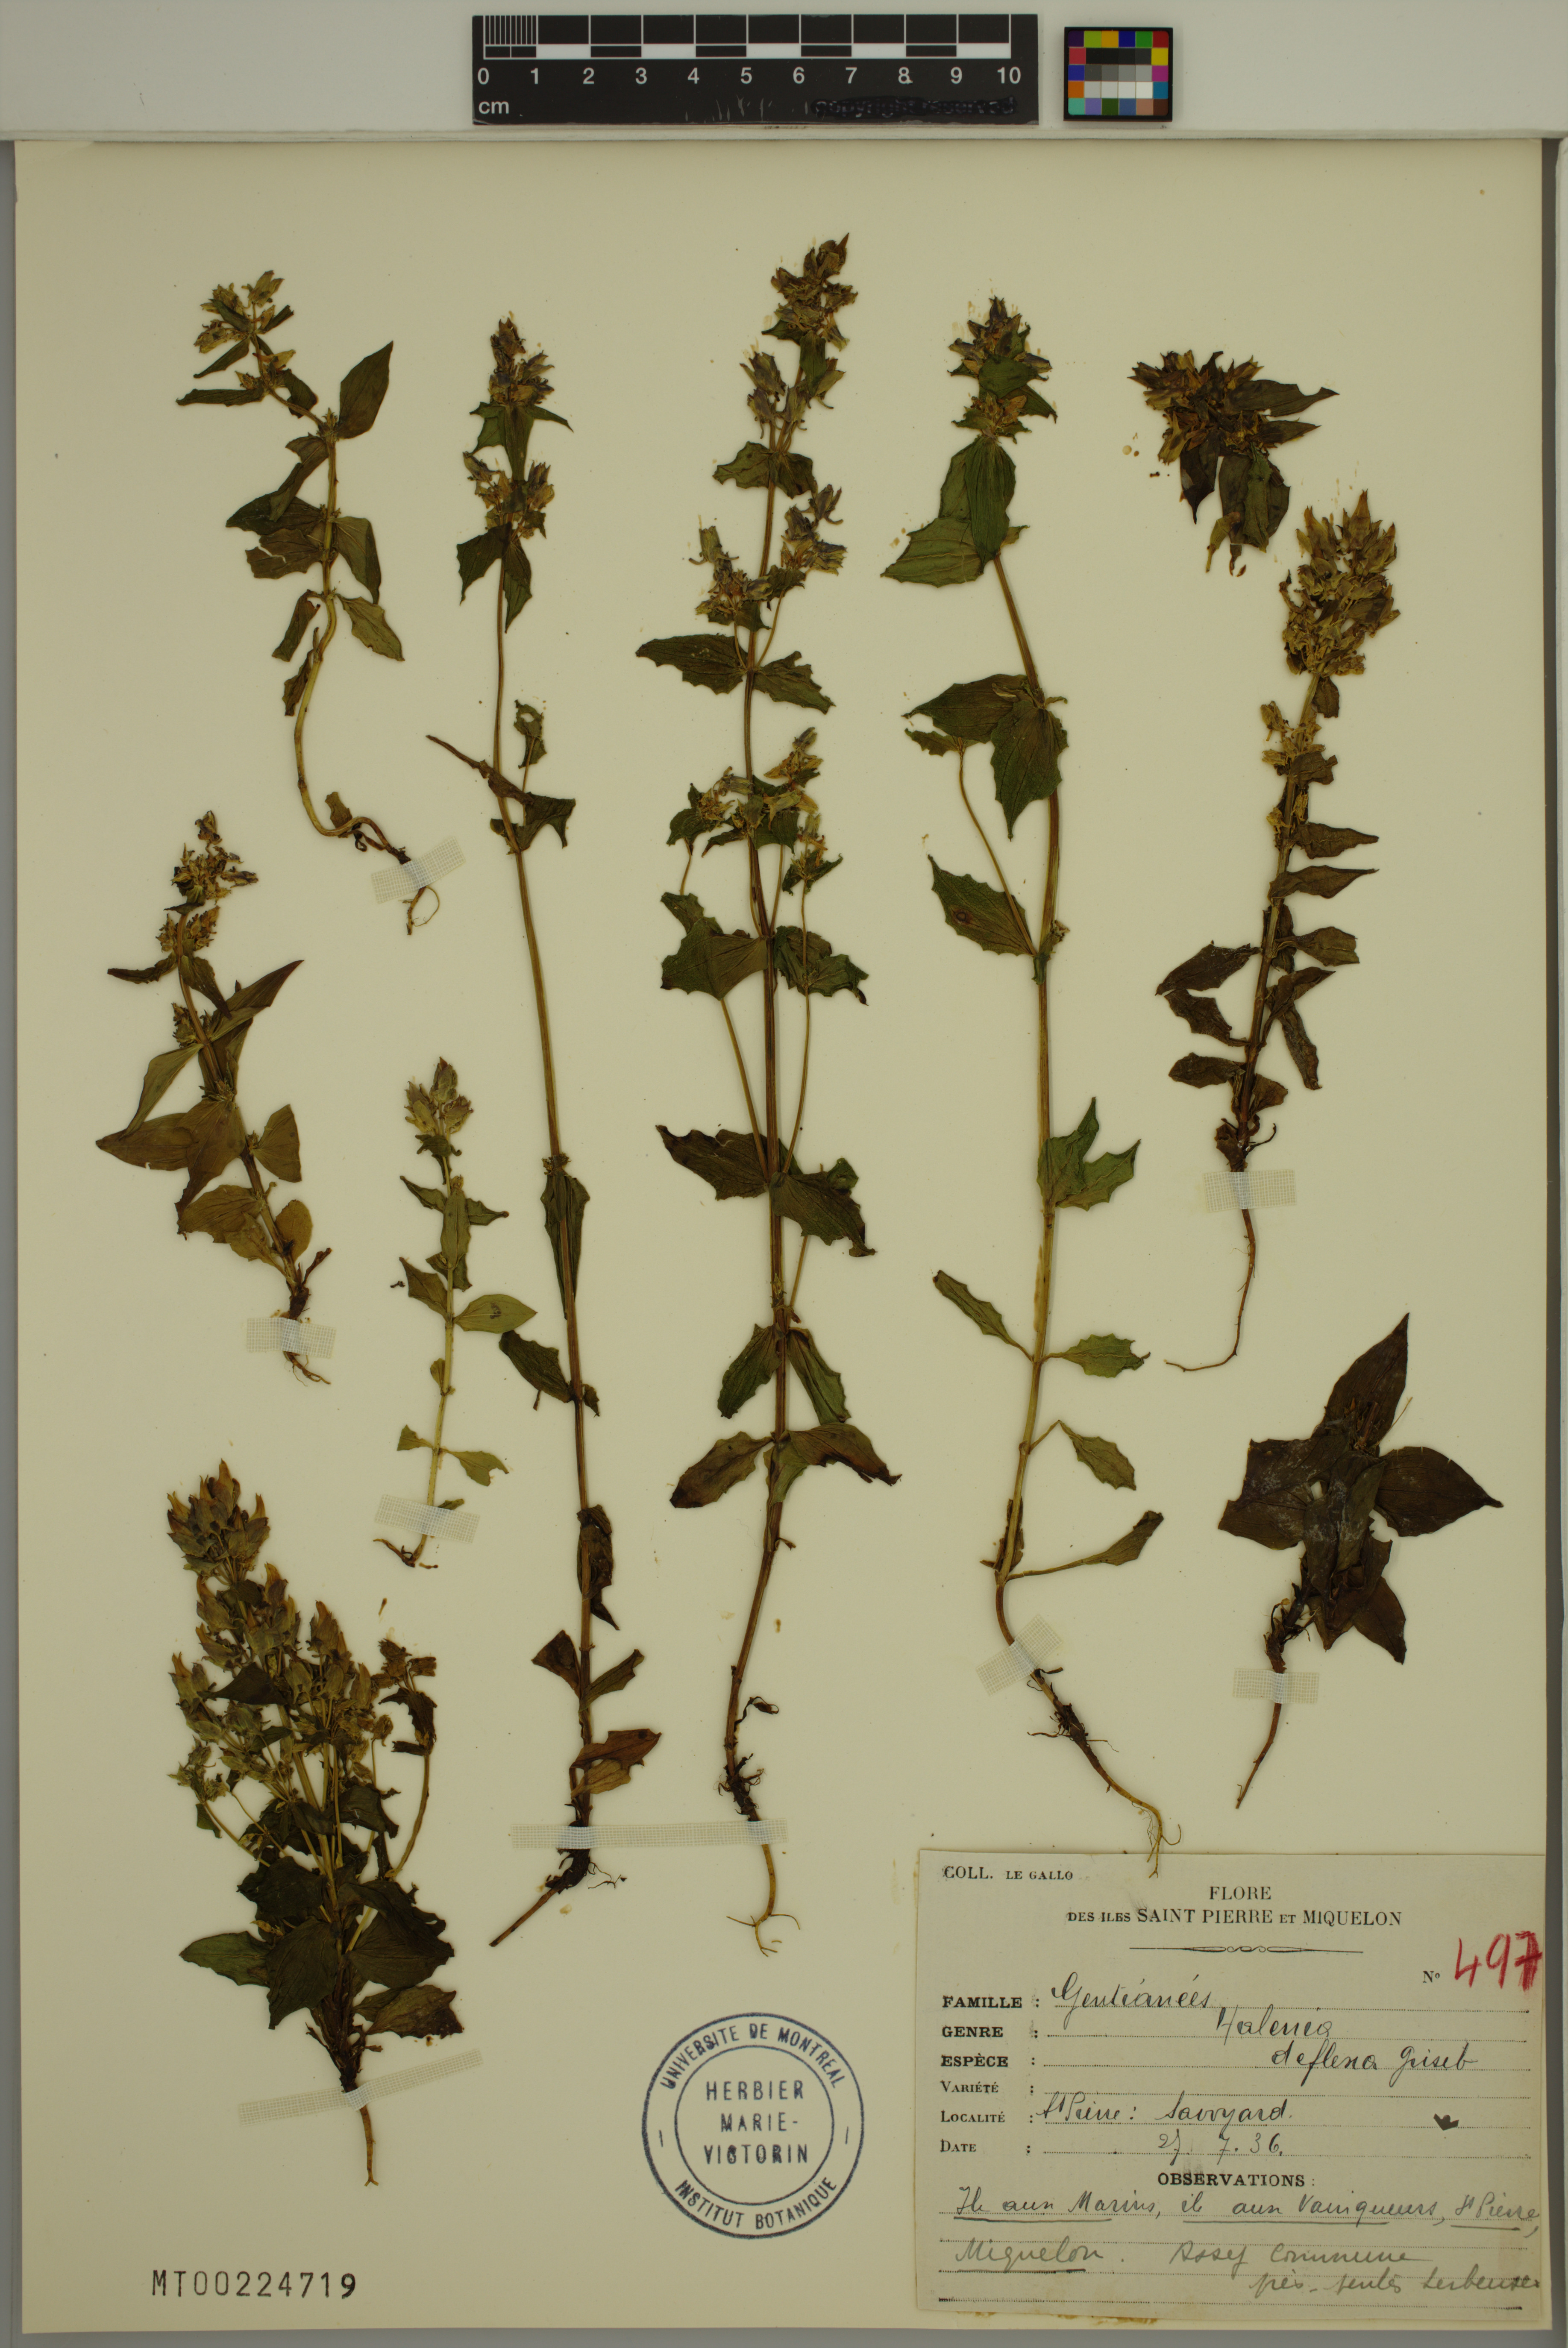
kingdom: Plantae
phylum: Tracheophyta
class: Magnoliopsida
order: Gentianales
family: Gentianaceae
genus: Halenia
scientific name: Halenia deflexa
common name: American spurred gentian
